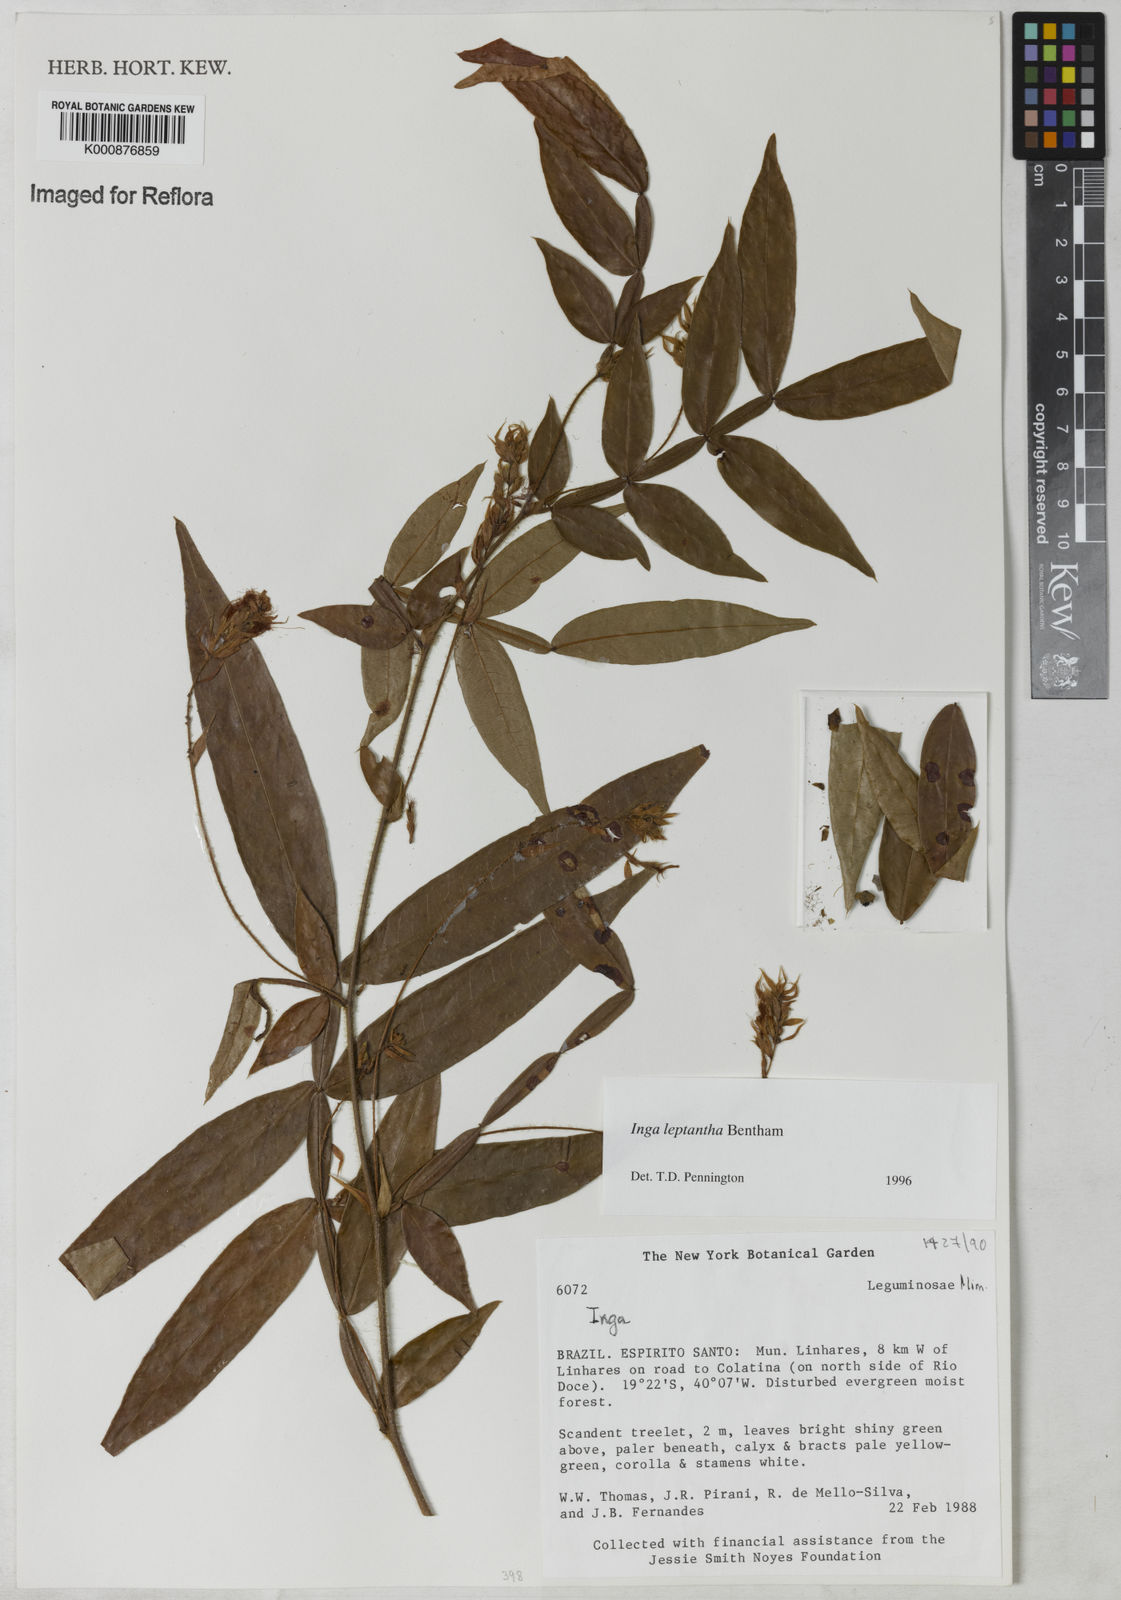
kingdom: Plantae
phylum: Tracheophyta
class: Magnoliopsida
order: Fabales
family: Fabaceae
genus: Inga
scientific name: Inga leptantha
